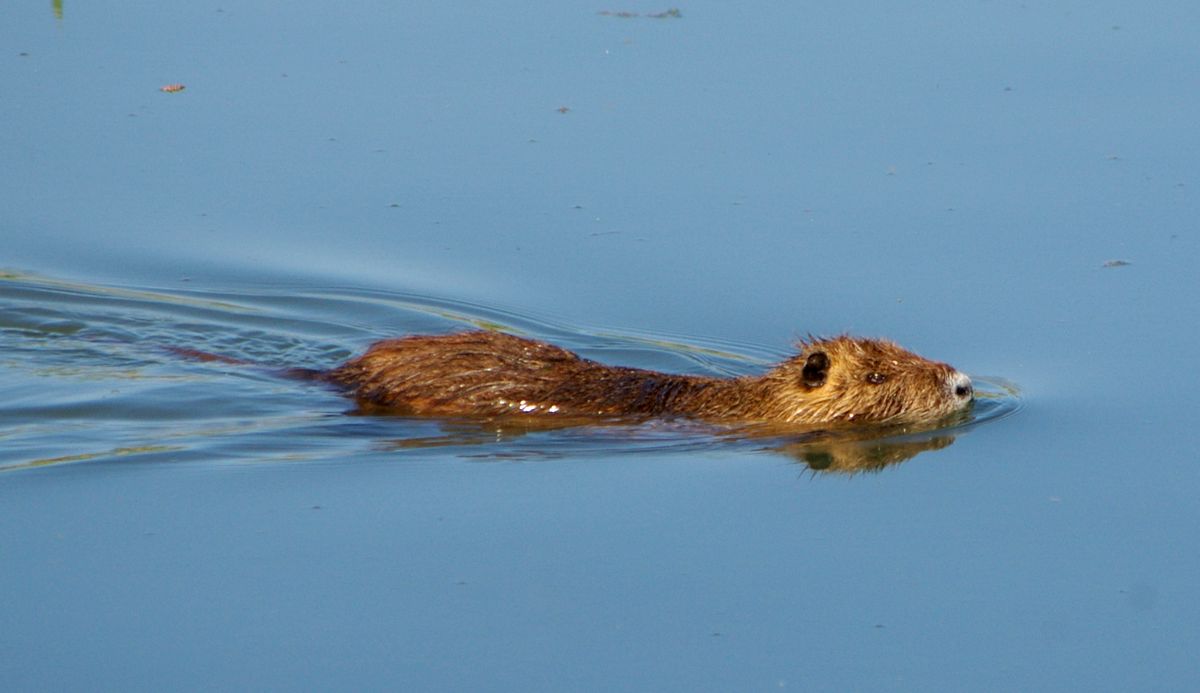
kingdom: Animalia
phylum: Chordata
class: Mammalia
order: Rodentia
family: Myocastoridae
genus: Myocastor
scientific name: Myocastor coypus
